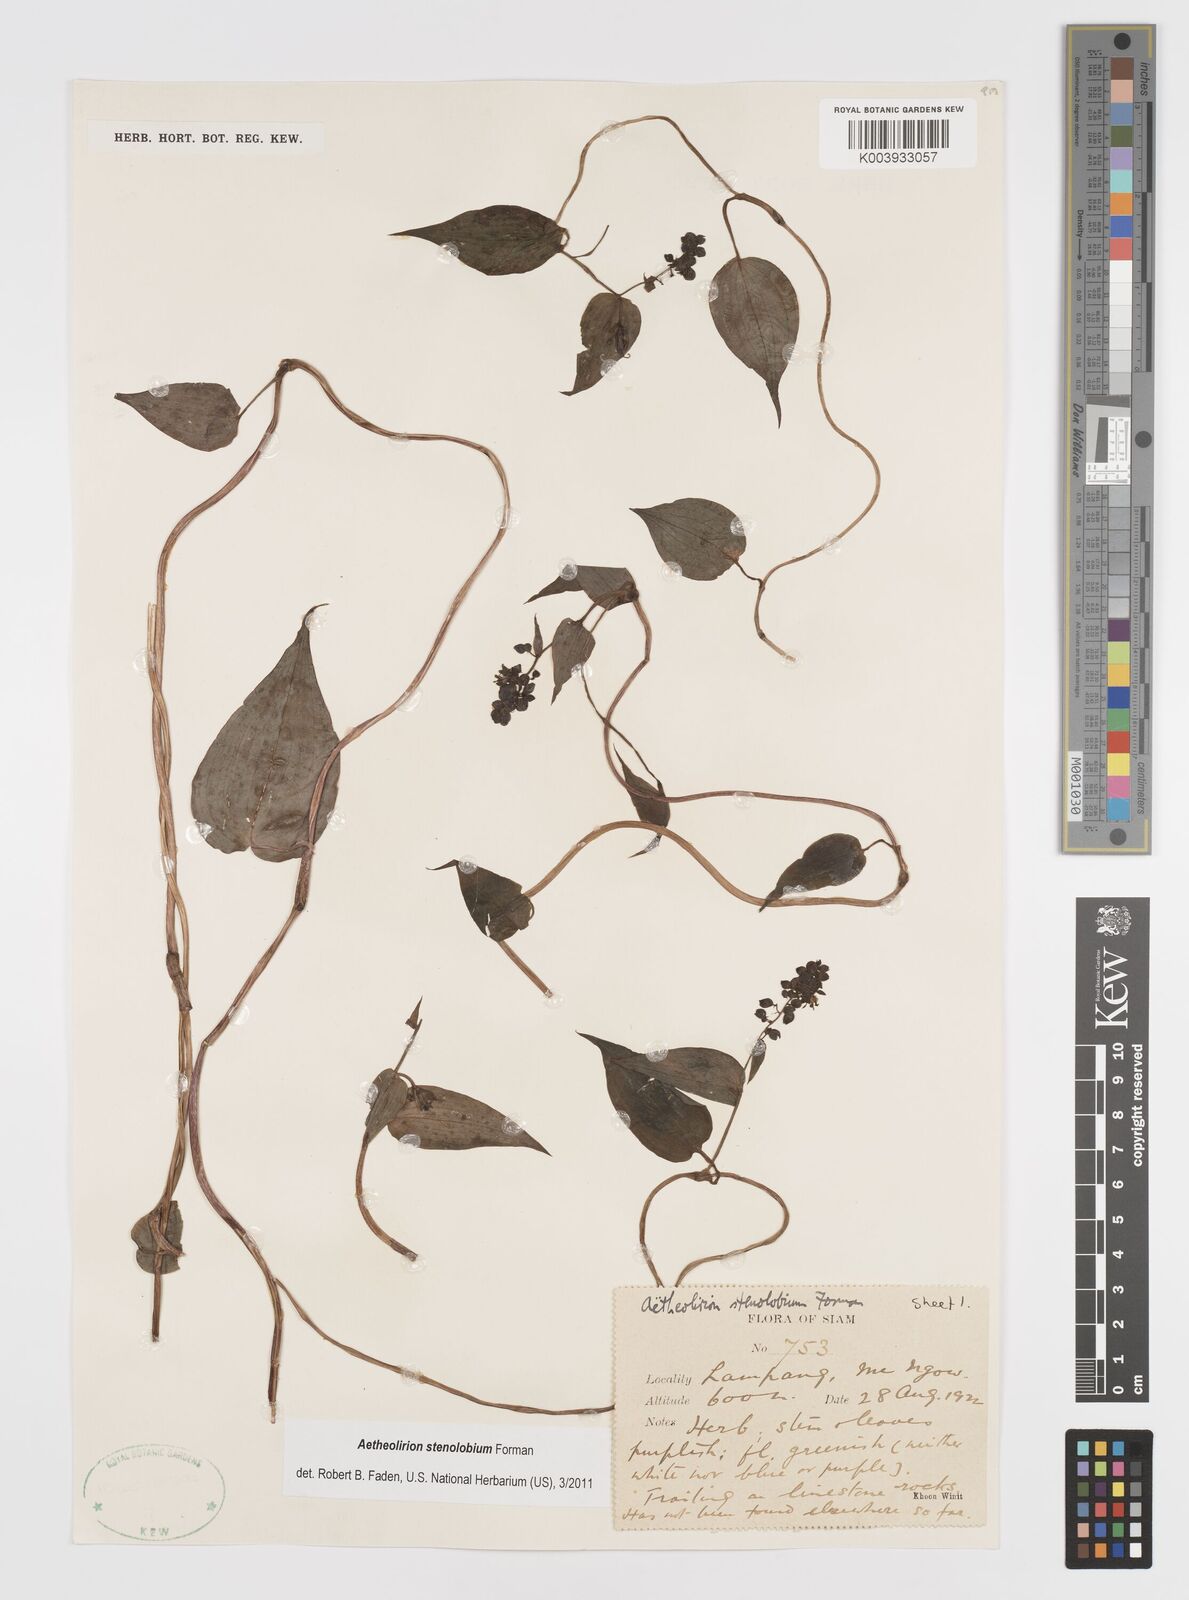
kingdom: Plantae
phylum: Tracheophyta
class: Liliopsida
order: Commelinales
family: Commelinaceae
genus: Aetheolirion
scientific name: Aetheolirion stenolobium
